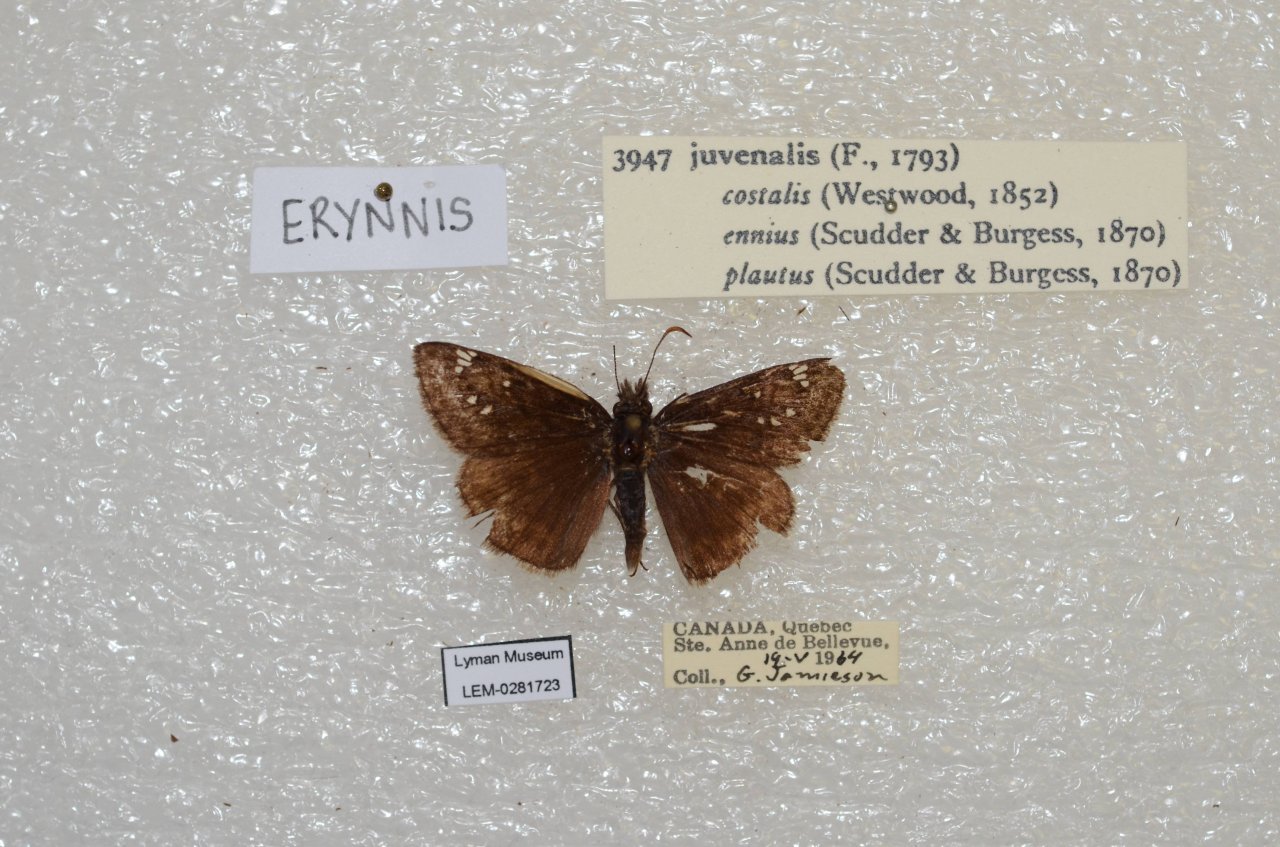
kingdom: Animalia
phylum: Arthropoda
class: Insecta
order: Lepidoptera
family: Hesperiidae
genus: Gesta
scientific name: Gesta
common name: Juvenal's Duskywing
